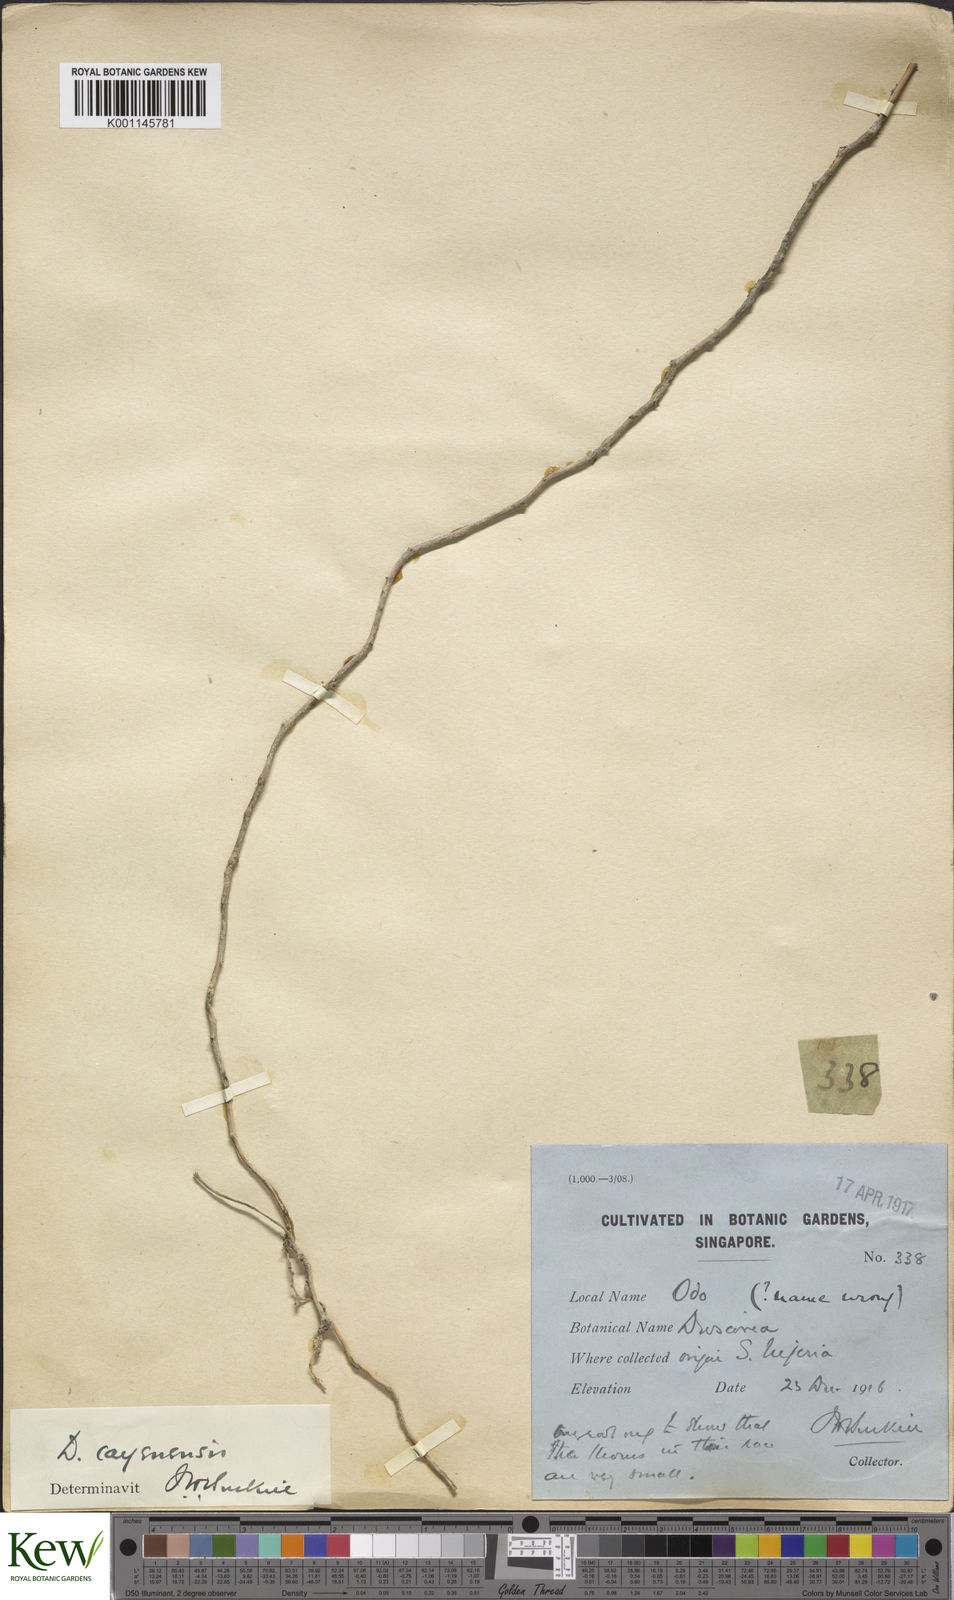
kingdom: Plantae
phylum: Tracheophyta
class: Liliopsida
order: Dioscoreales
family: Dioscoreaceae
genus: Dioscorea
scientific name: Dioscorea cayenensis
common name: Attoto yam
